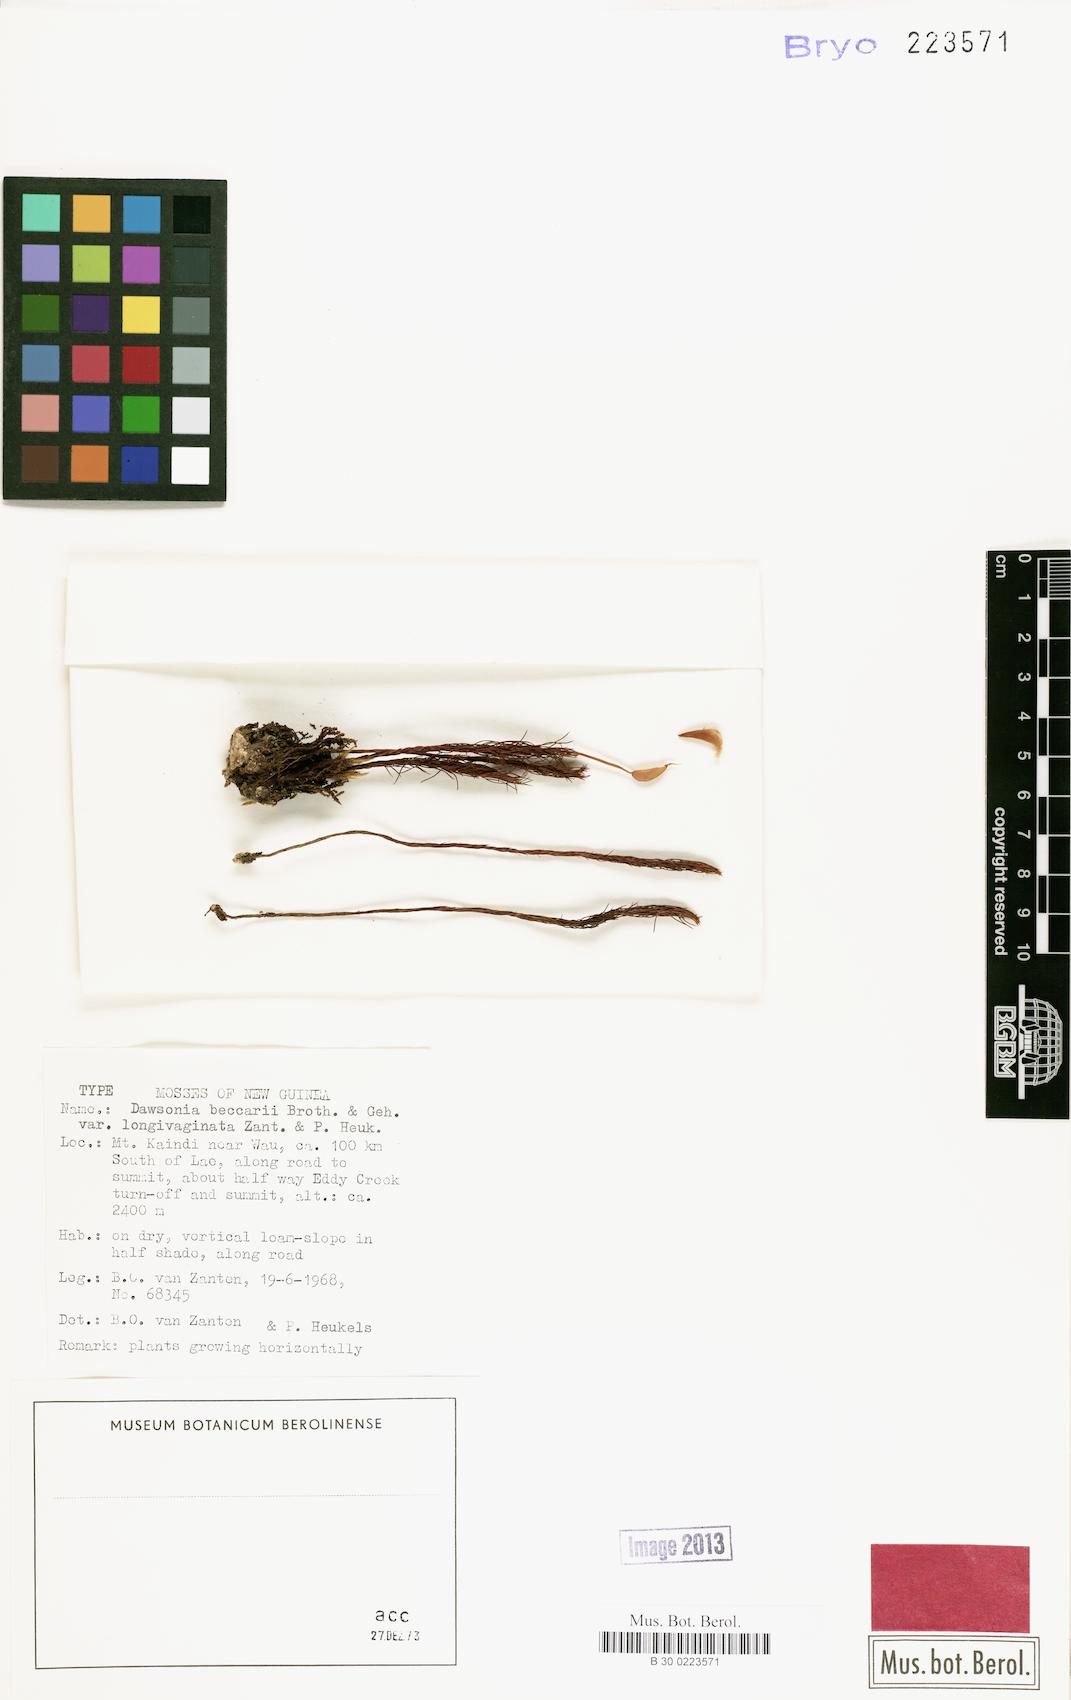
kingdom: Plantae
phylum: Bryophyta
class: Polytrichopsida
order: Polytrichales
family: Polytrichaceae
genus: Dawsonia
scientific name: Dawsonia beccarii
